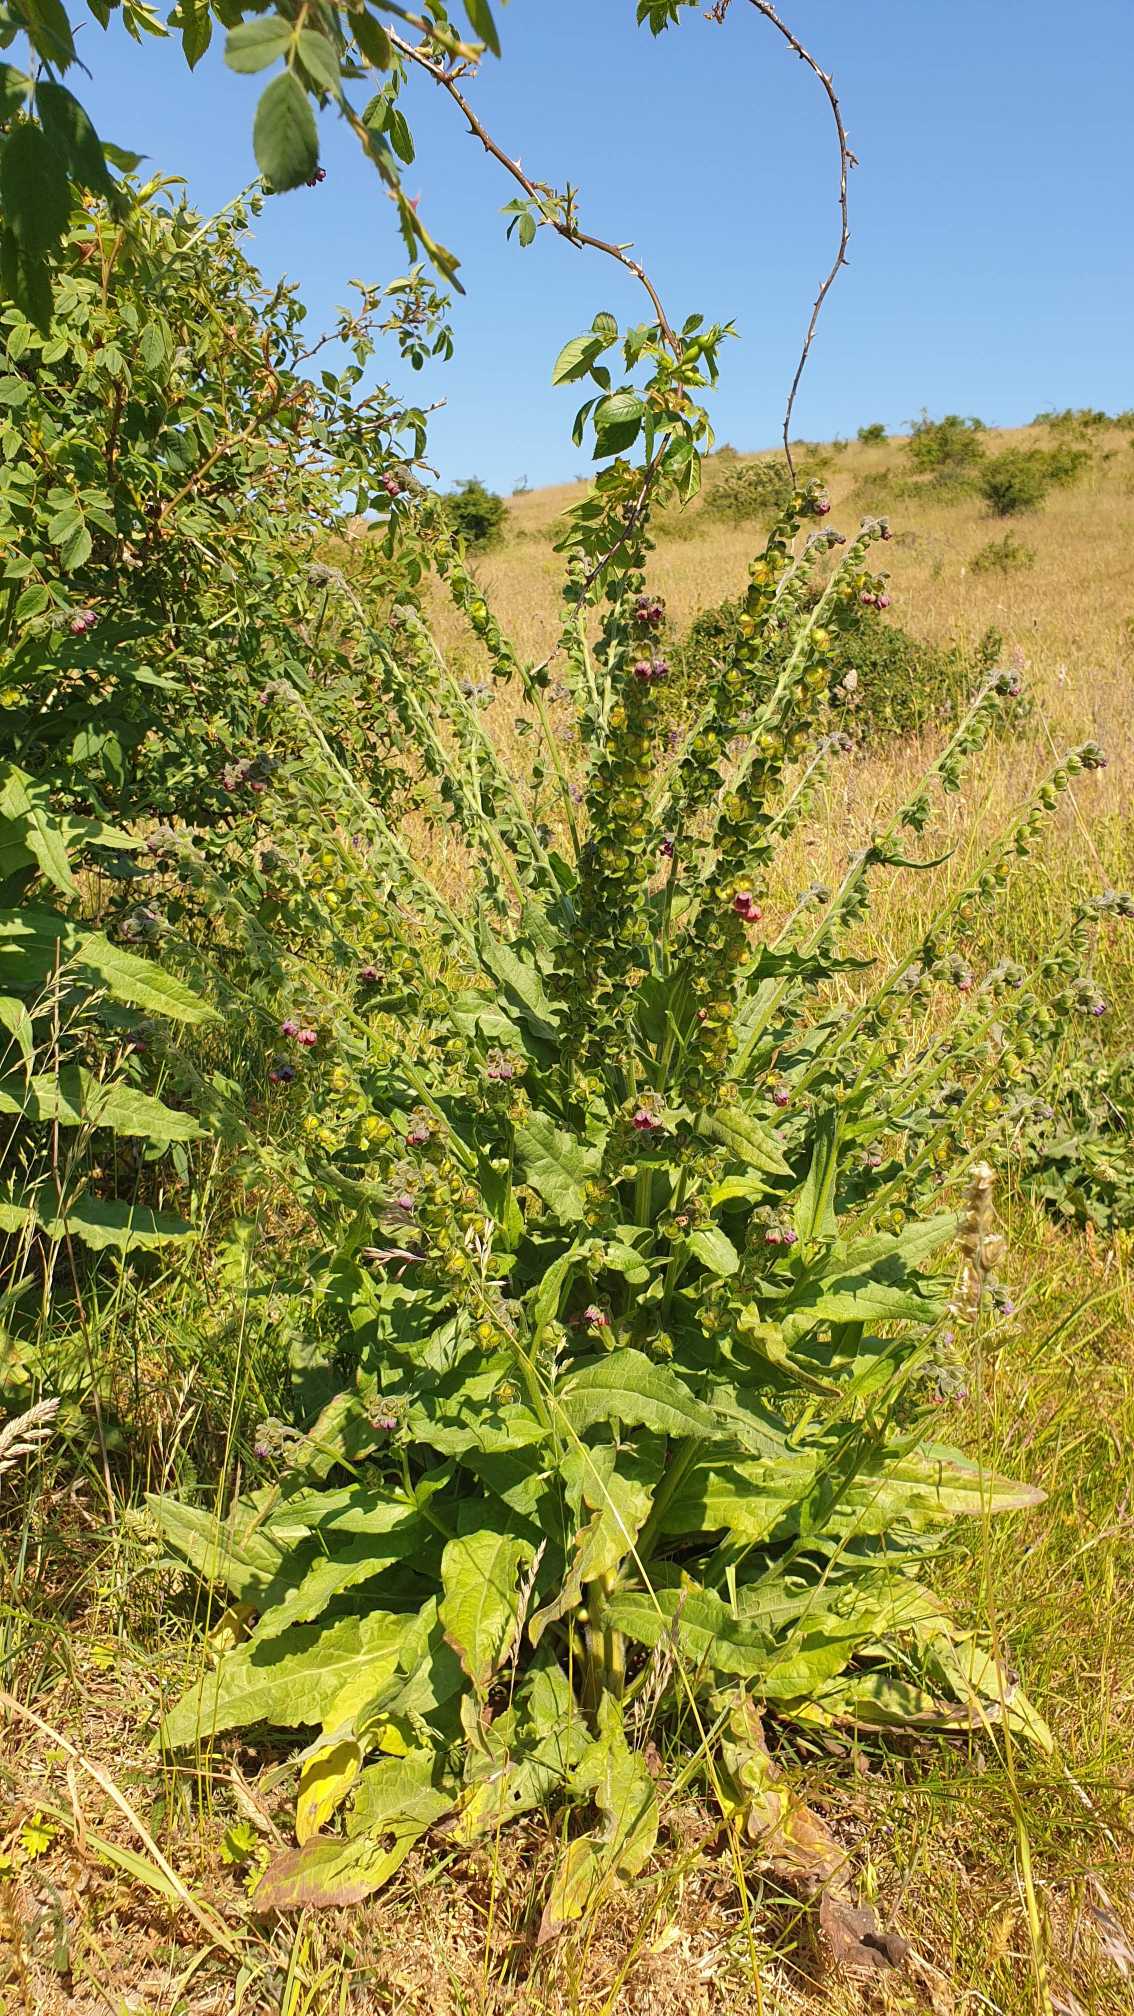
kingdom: Plantae
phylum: Tracheophyta
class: Magnoliopsida
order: Boraginales
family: Boraginaceae
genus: Cynoglossum
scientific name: Cynoglossum officinale
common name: Hundetunge
